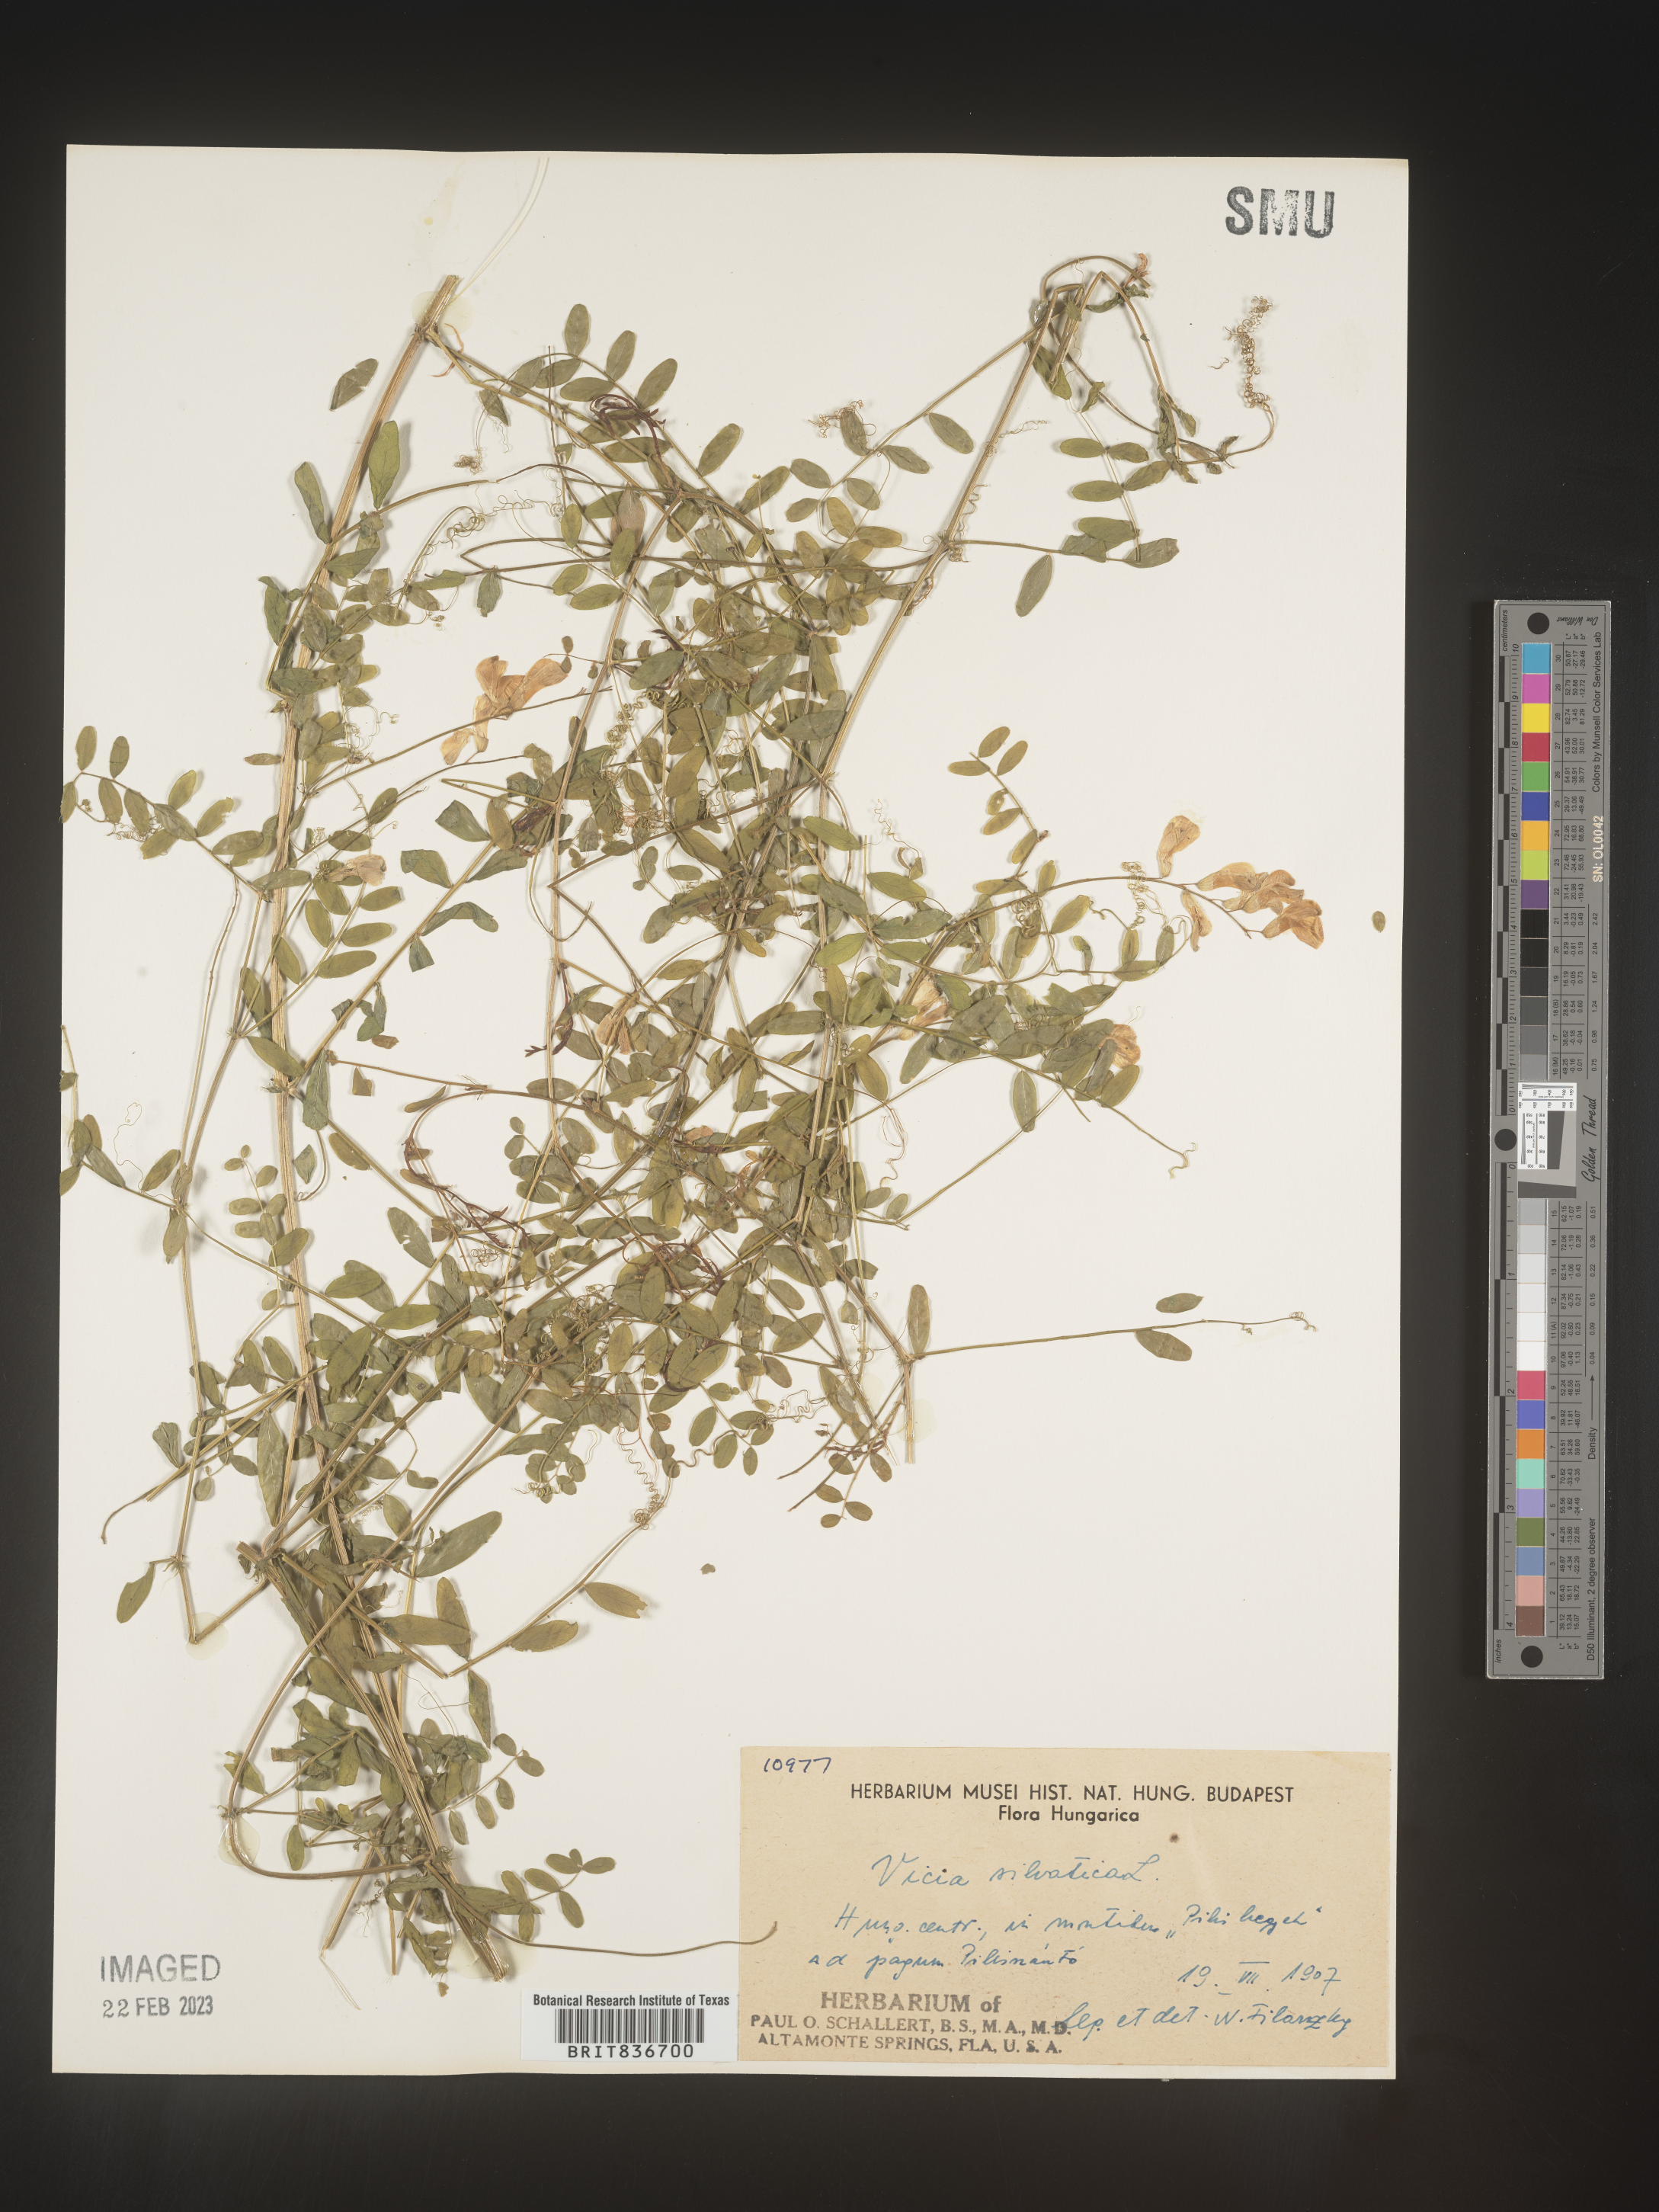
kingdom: Plantae
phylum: Tracheophyta
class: Magnoliopsida
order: Fabales
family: Fabaceae
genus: Vicia
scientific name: Vicia sylvatica
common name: Wood vetch
